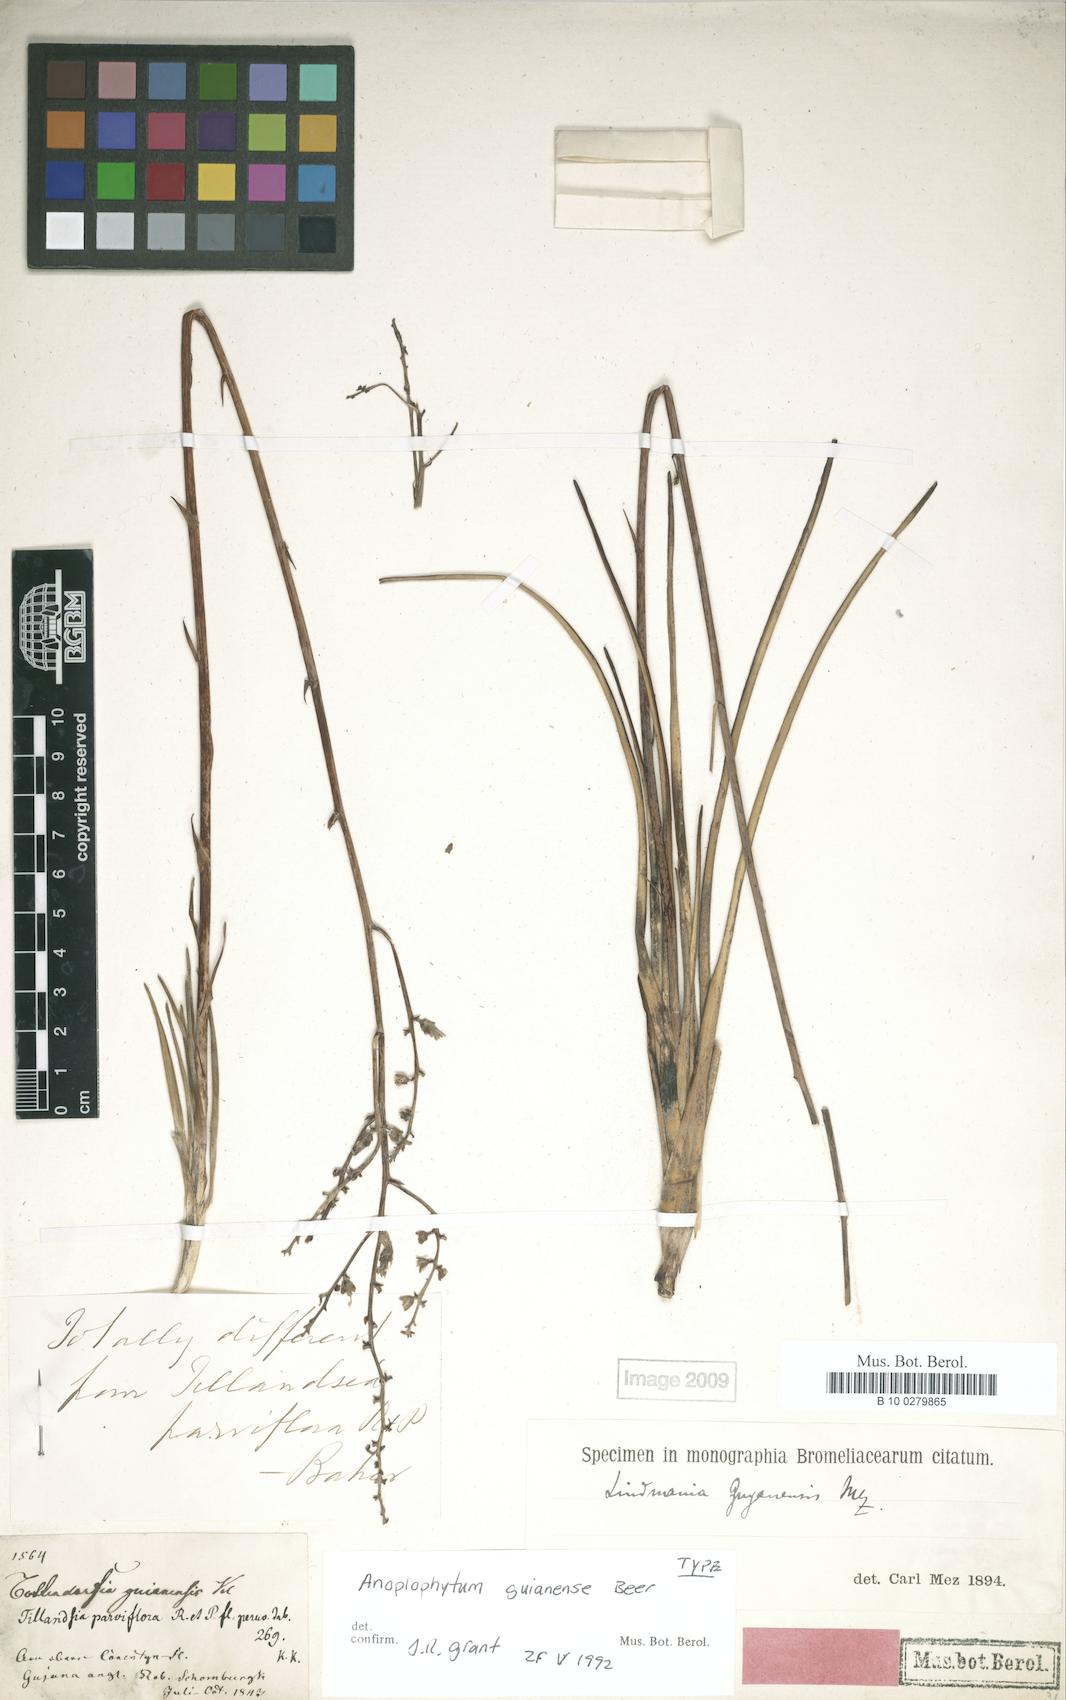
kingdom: Plantae
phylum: Tracheophyta
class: Liliopsida
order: Poales
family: Bromeliaceae
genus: Lindmania
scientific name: Lindmania guianensis
